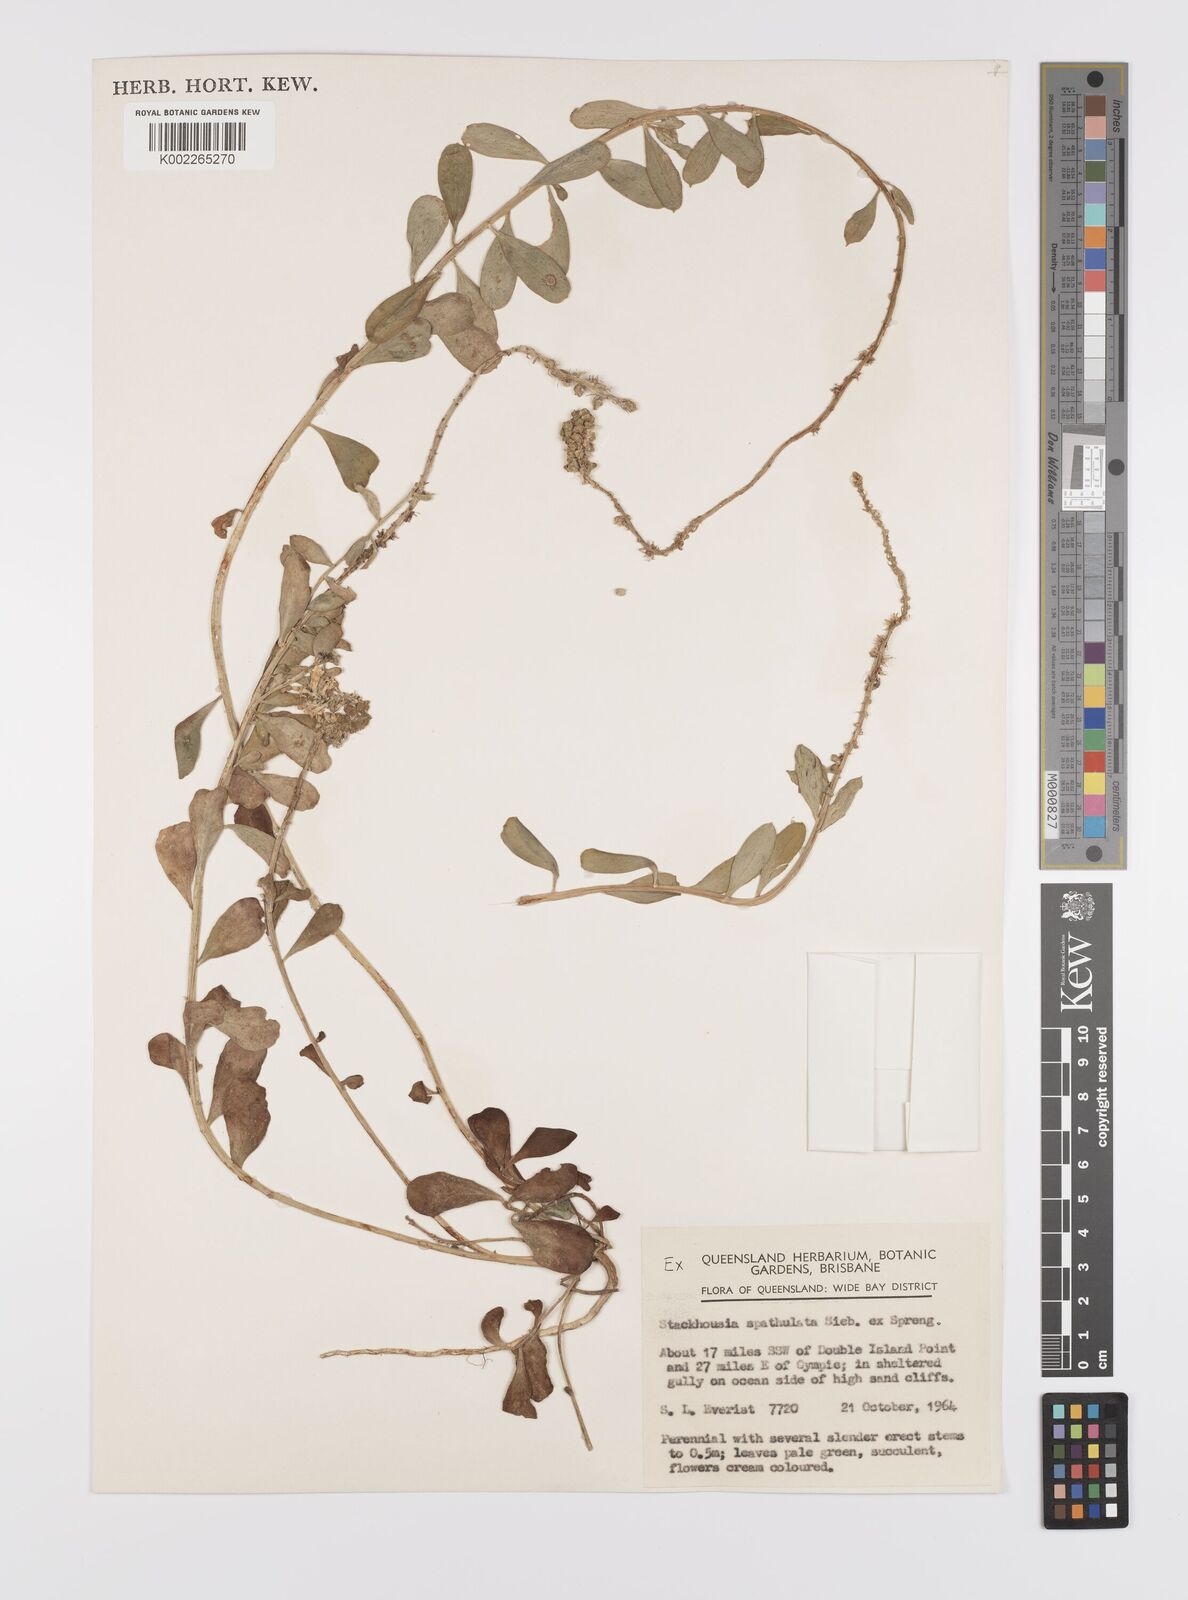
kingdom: Plantae
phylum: Tracheophyta
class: Magnoliopsida
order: Celastrales
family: Celastraceae
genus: Stackhousia
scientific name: Stackhousia spathulata
